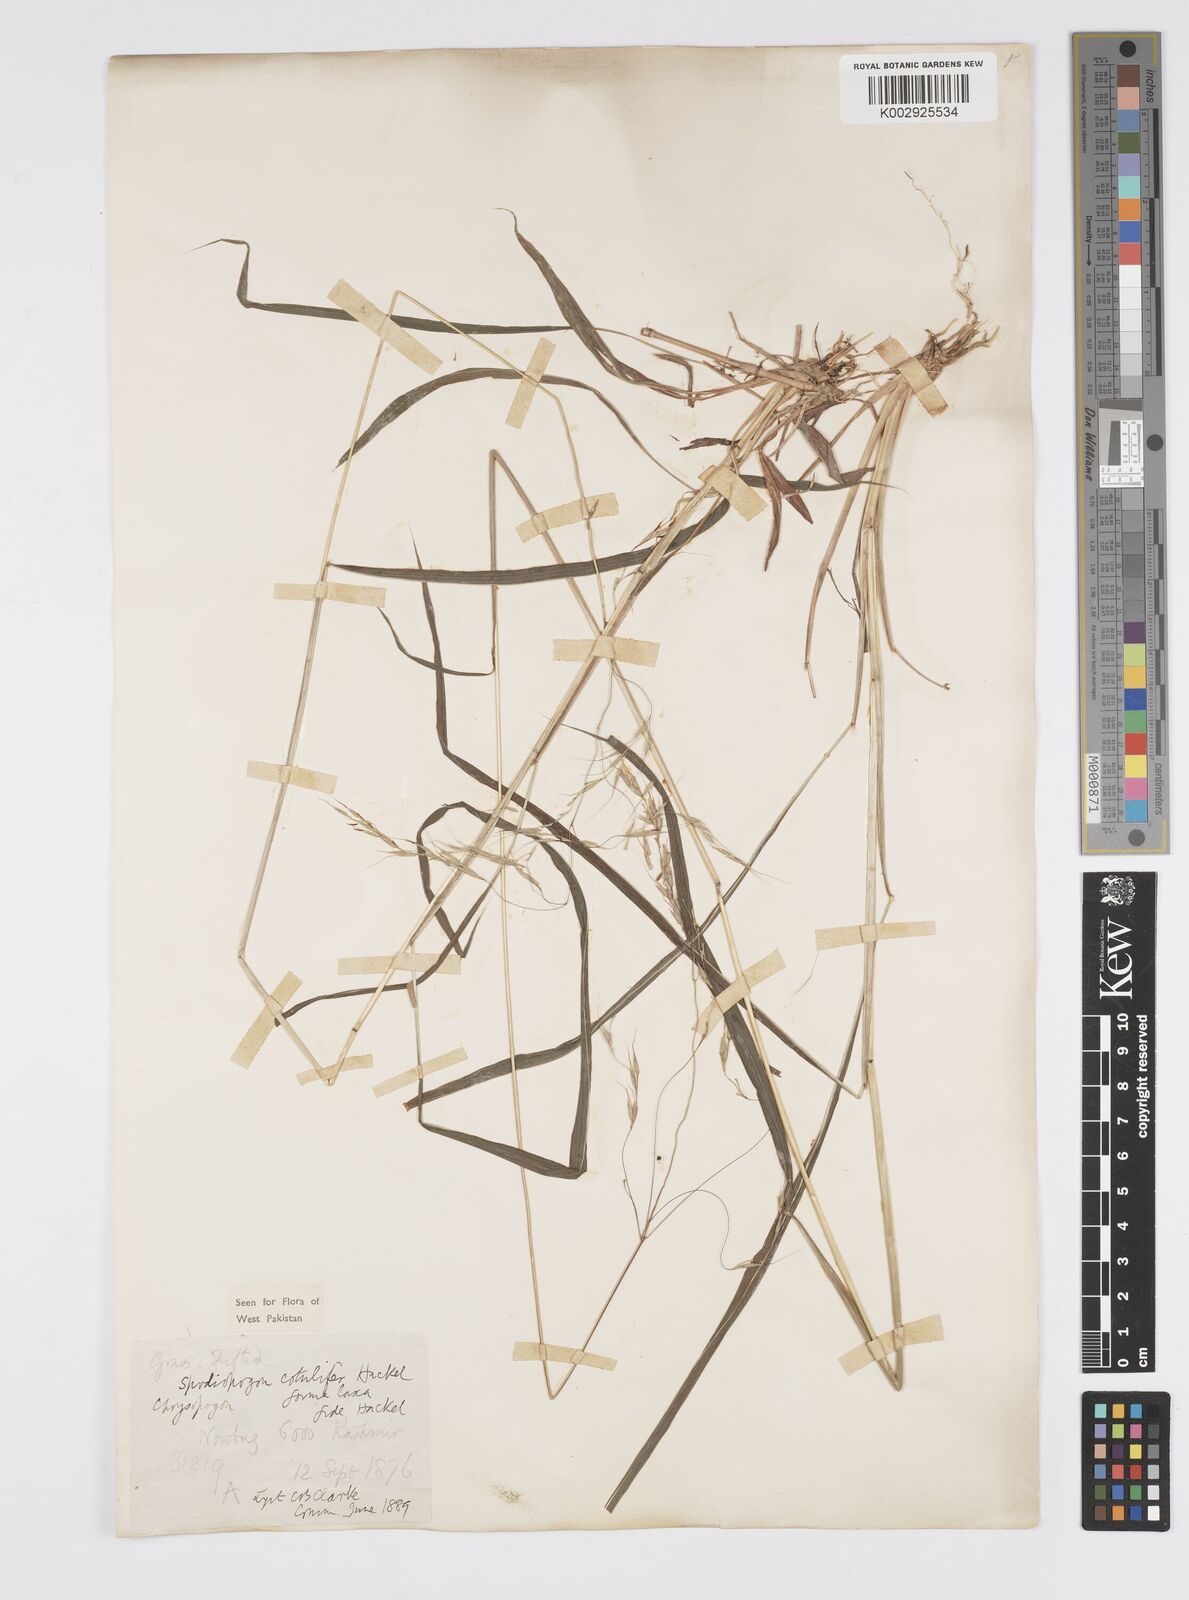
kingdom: Plantae
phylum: Tracheophyta
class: Liliopsida
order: Poales
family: Poaceae
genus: Spodiopogon
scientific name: Spodiopogon cotulifer
